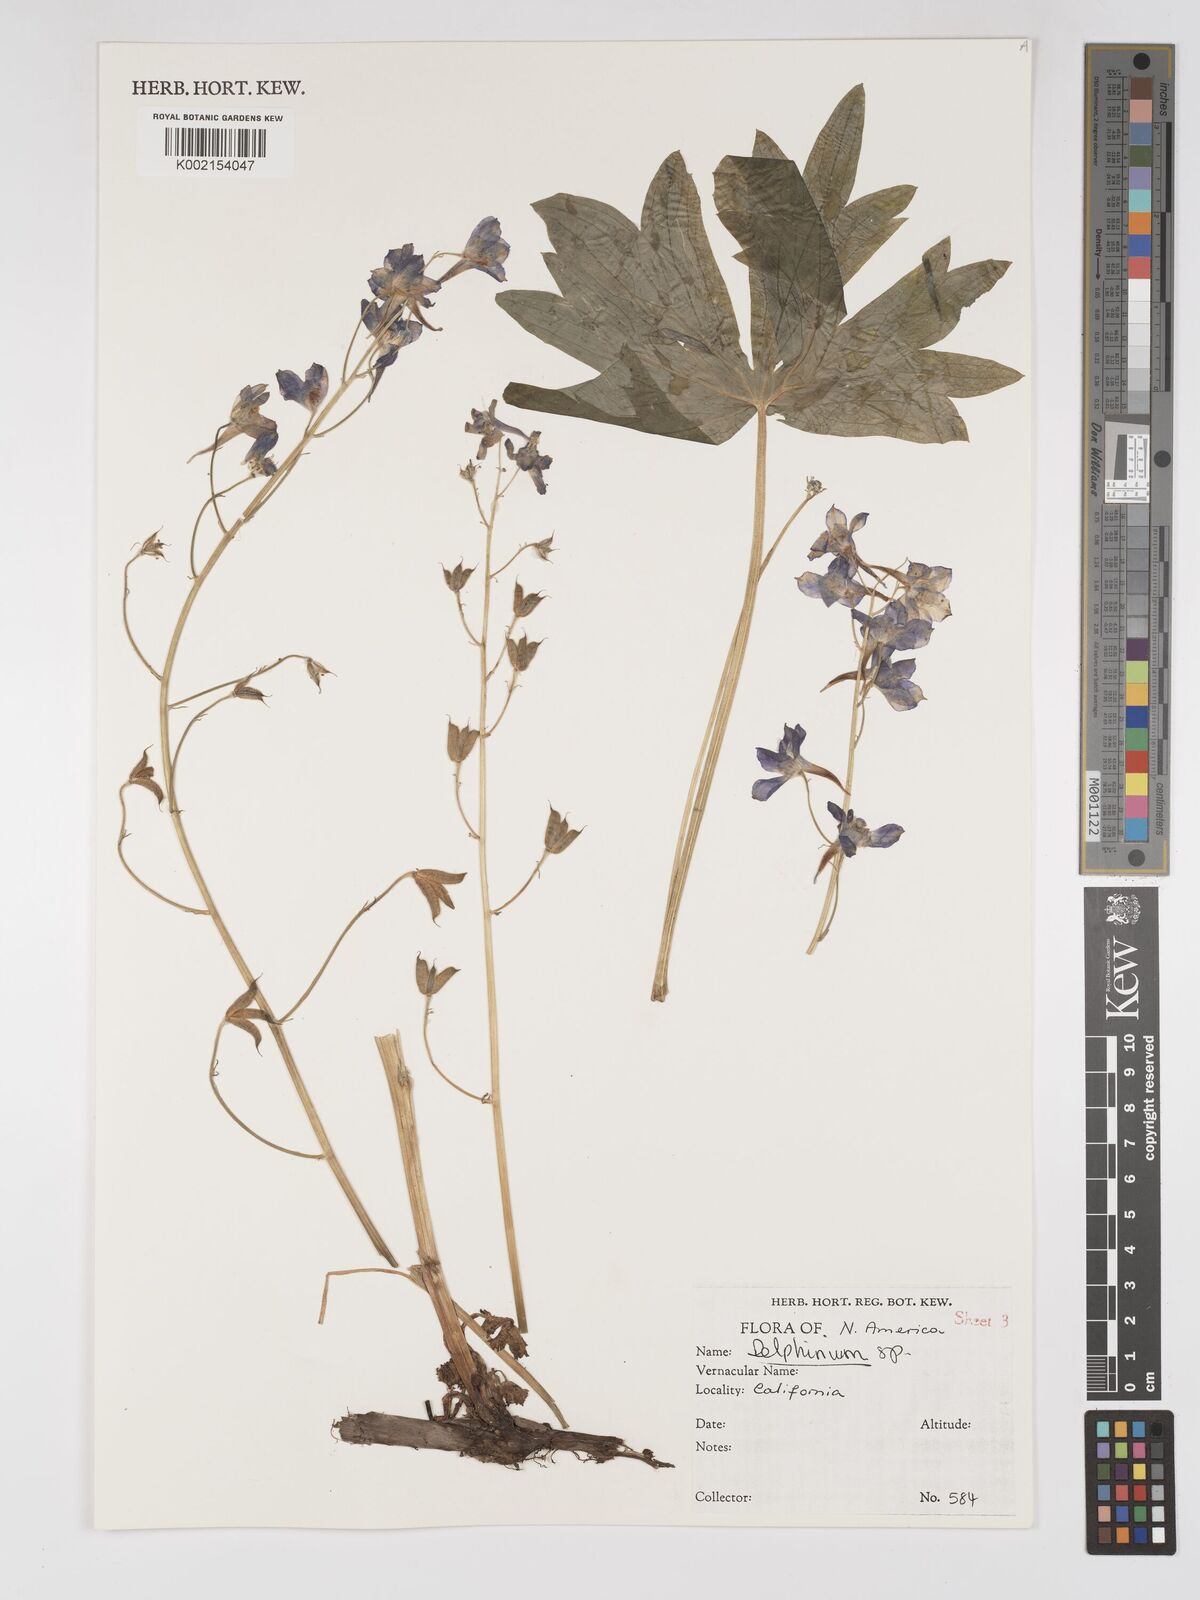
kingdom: Plantae
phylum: Tracheophyta
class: Magnoliopsida
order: Ranunculales
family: Ranunculaceae
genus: Delphinium
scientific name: Delphinium
